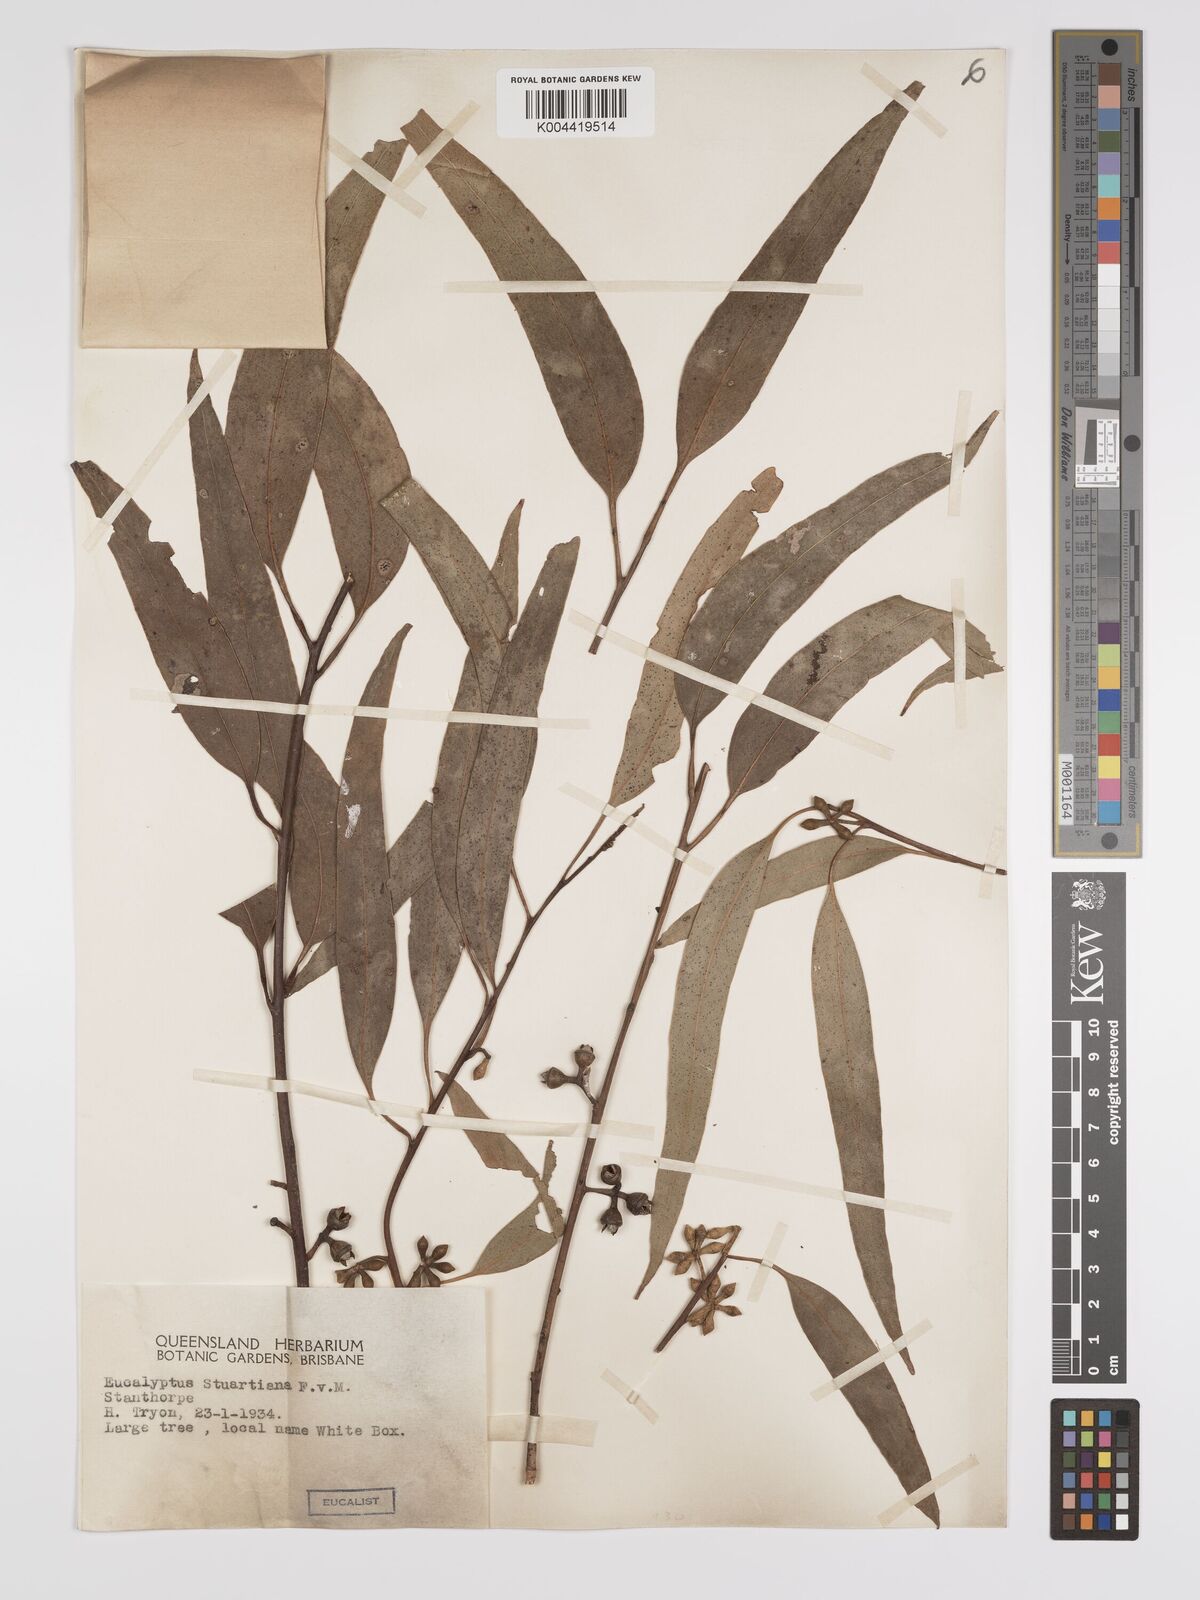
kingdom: Plantae
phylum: Tracheophyta
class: Magnoliopsida
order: Myrtales
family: Myrtaceae
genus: Eucalyptus
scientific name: Eucalyptus ovata
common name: Black-gum
